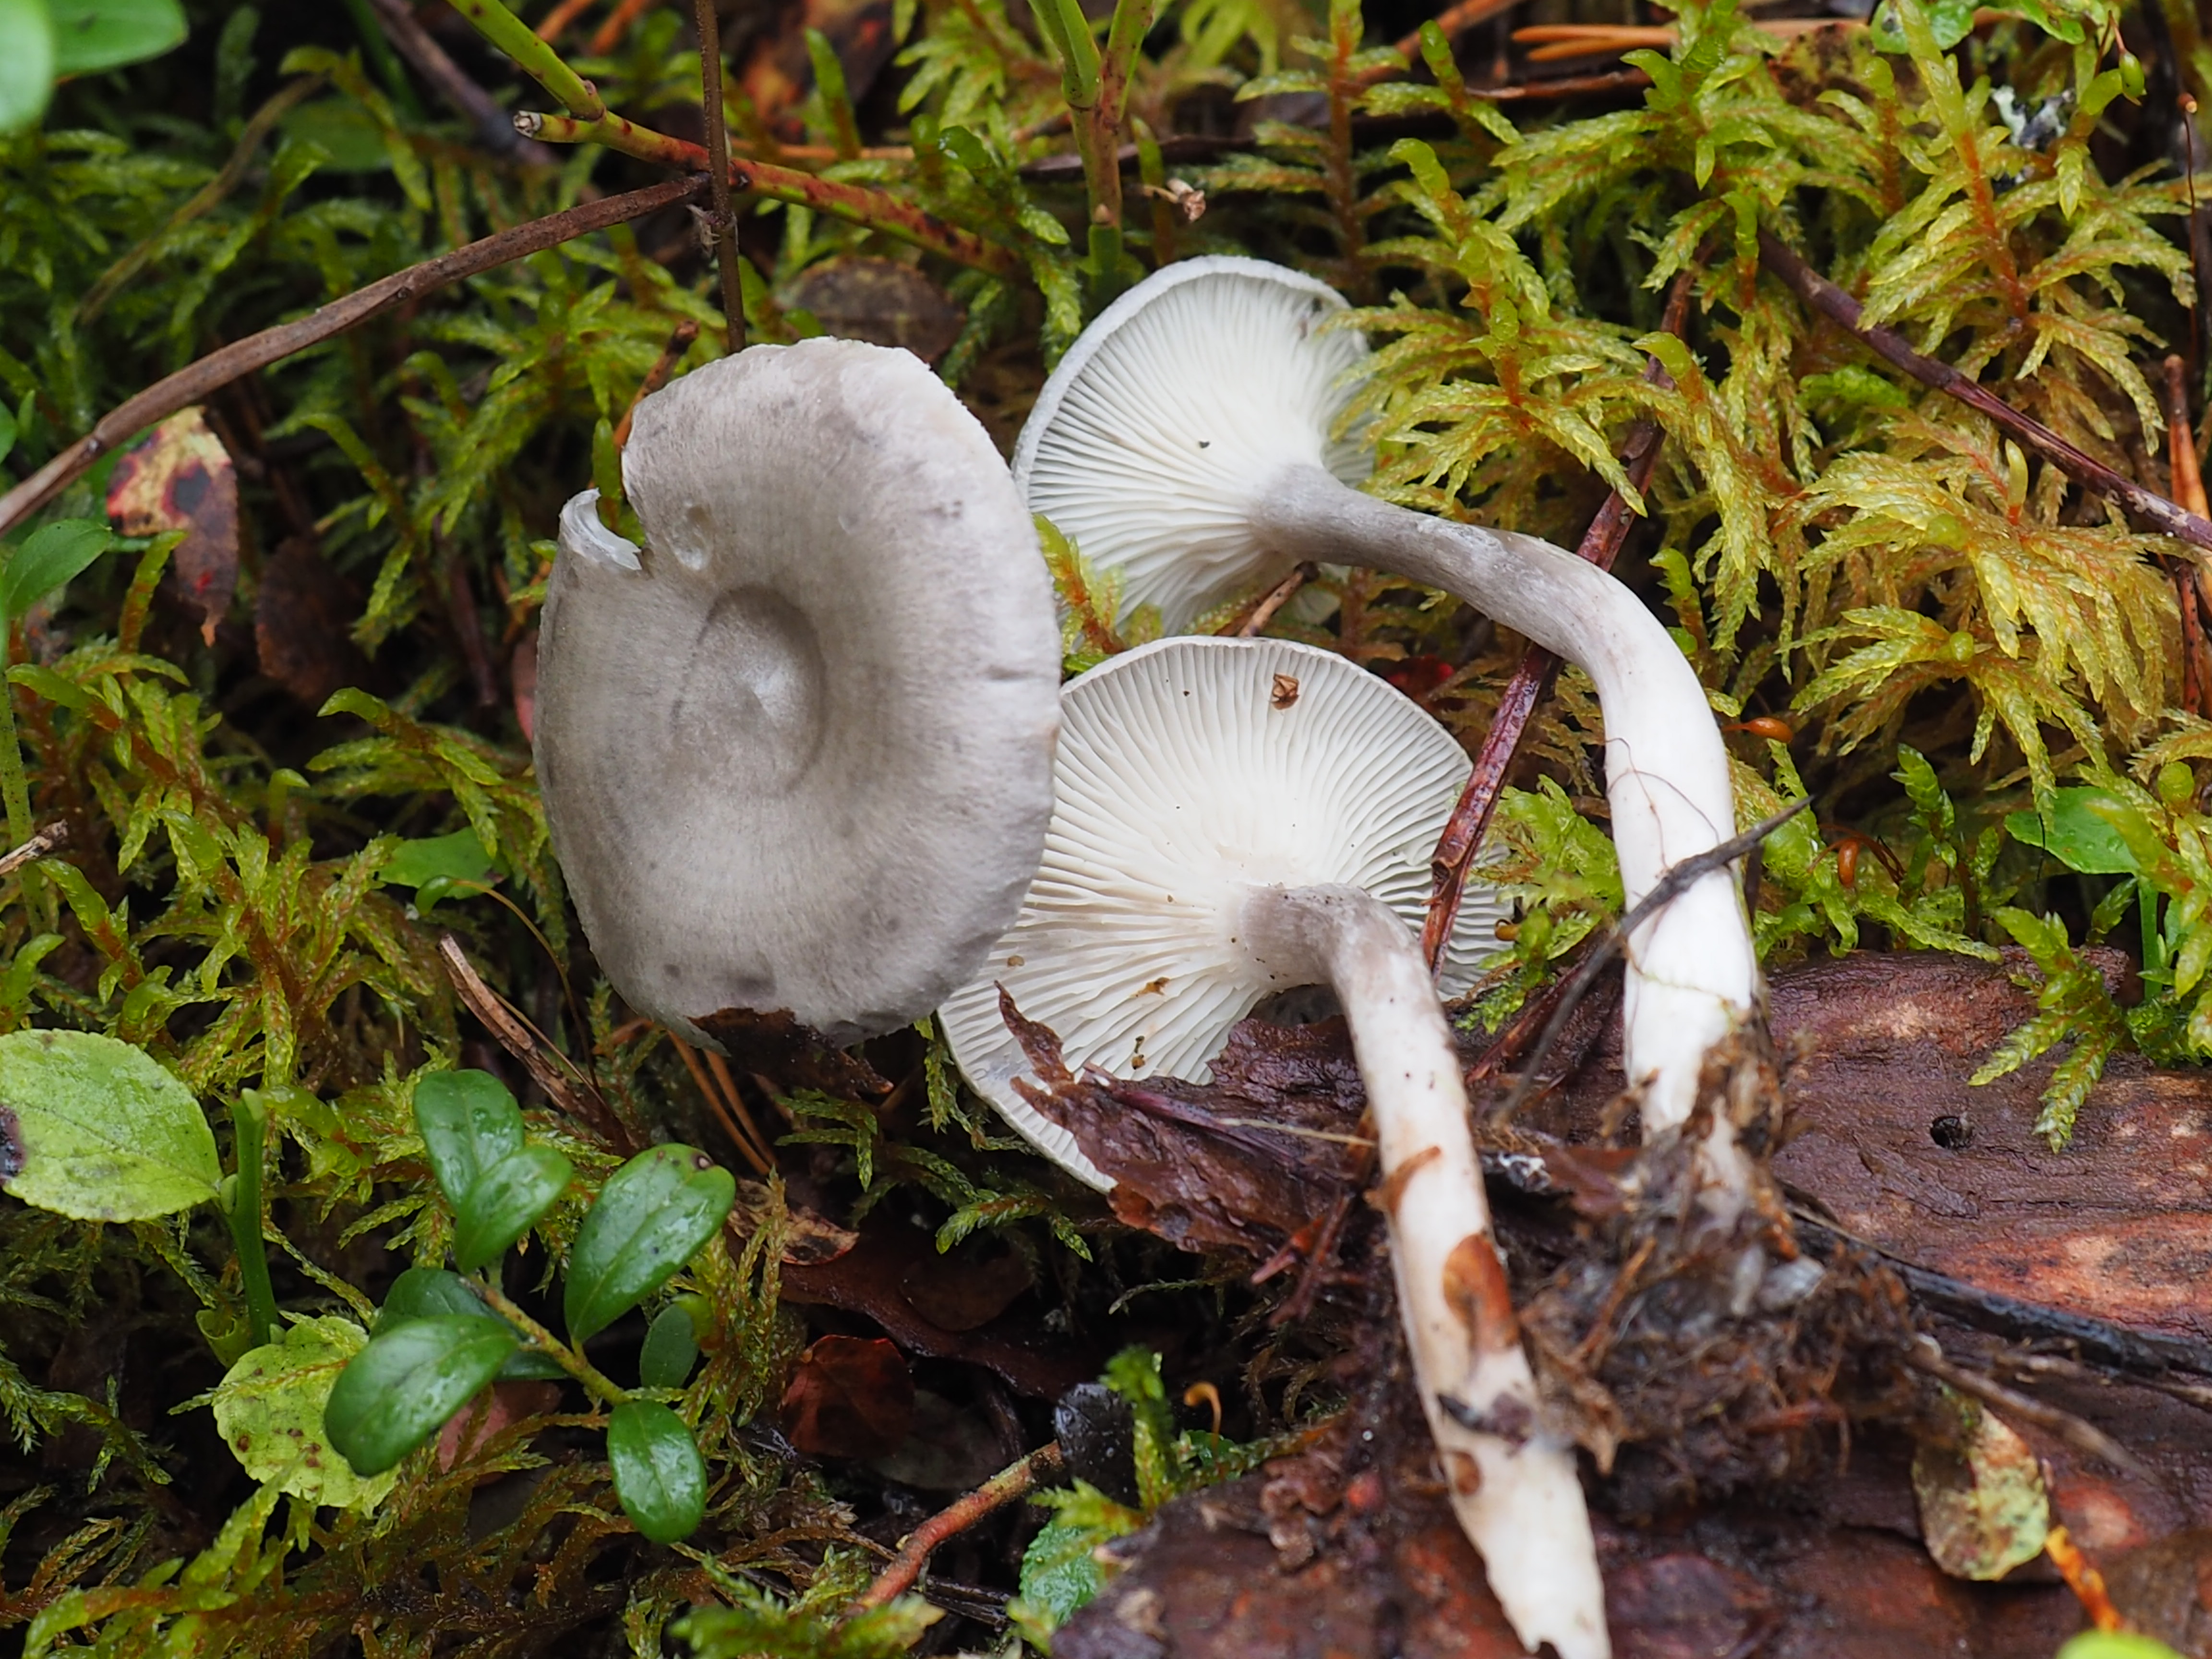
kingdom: Fungi
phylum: Basidiomycota
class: Agaricomycetes
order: Agaricales
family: Hygrophoraceae
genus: Cantharellula
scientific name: Cantharellula umbonata
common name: The humpback
